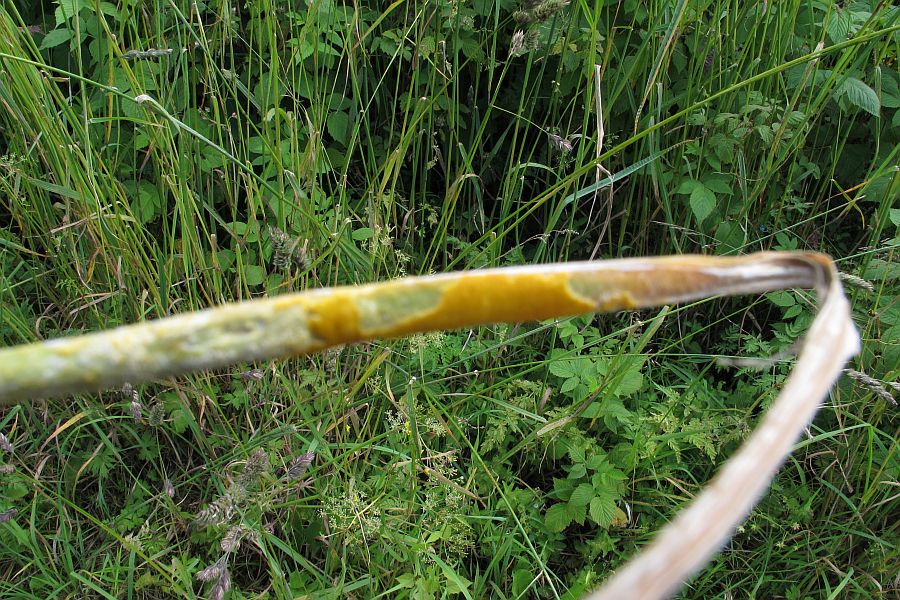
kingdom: Fungi
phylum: Ascomycota
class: Sordariomycetes
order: Hypocreales
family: Clavicipitaceae
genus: Epichloe
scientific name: Epichloe typhina
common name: almindelig kernerør
